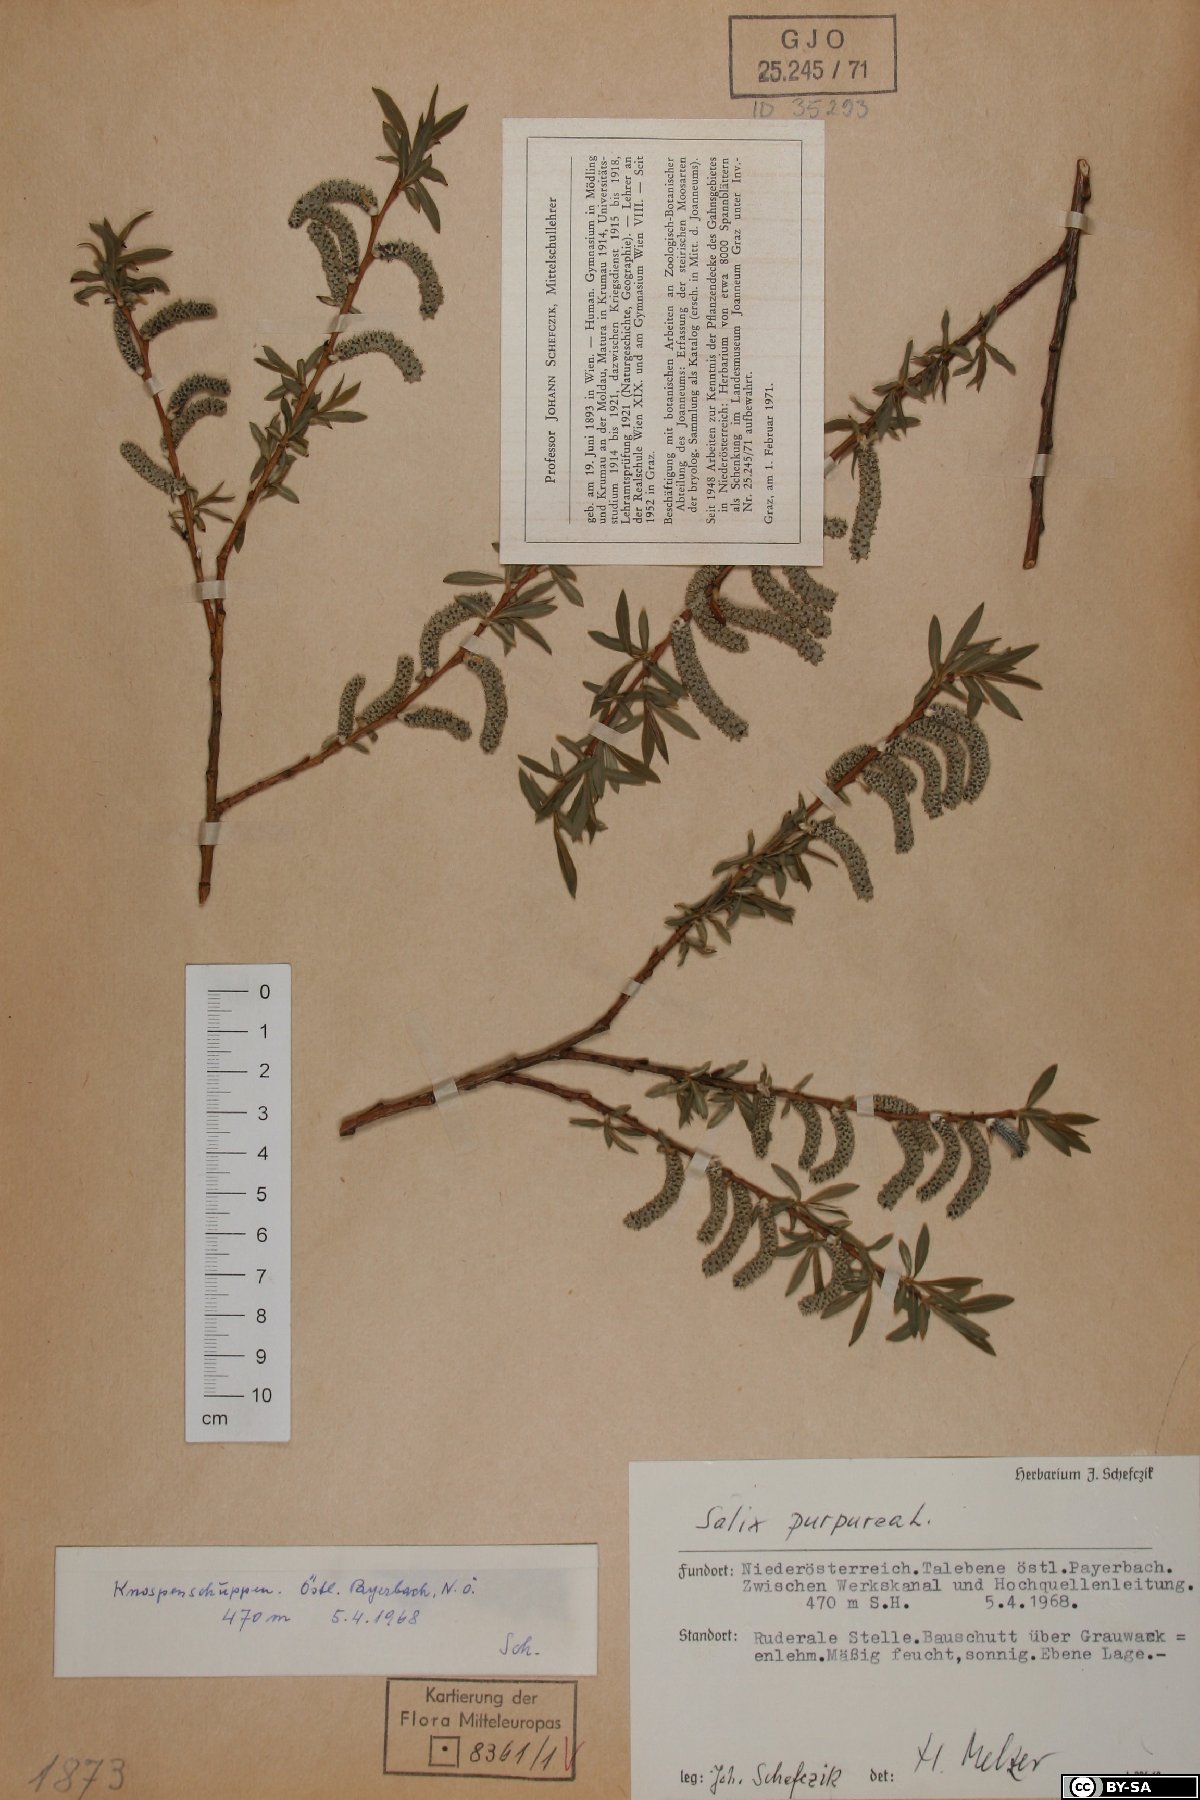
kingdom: Plantae
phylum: Tracheophyta
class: Magnoliopsida
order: Malpighiales
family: Salicaceae
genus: Salix
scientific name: Salix purpurea
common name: Purple willow
